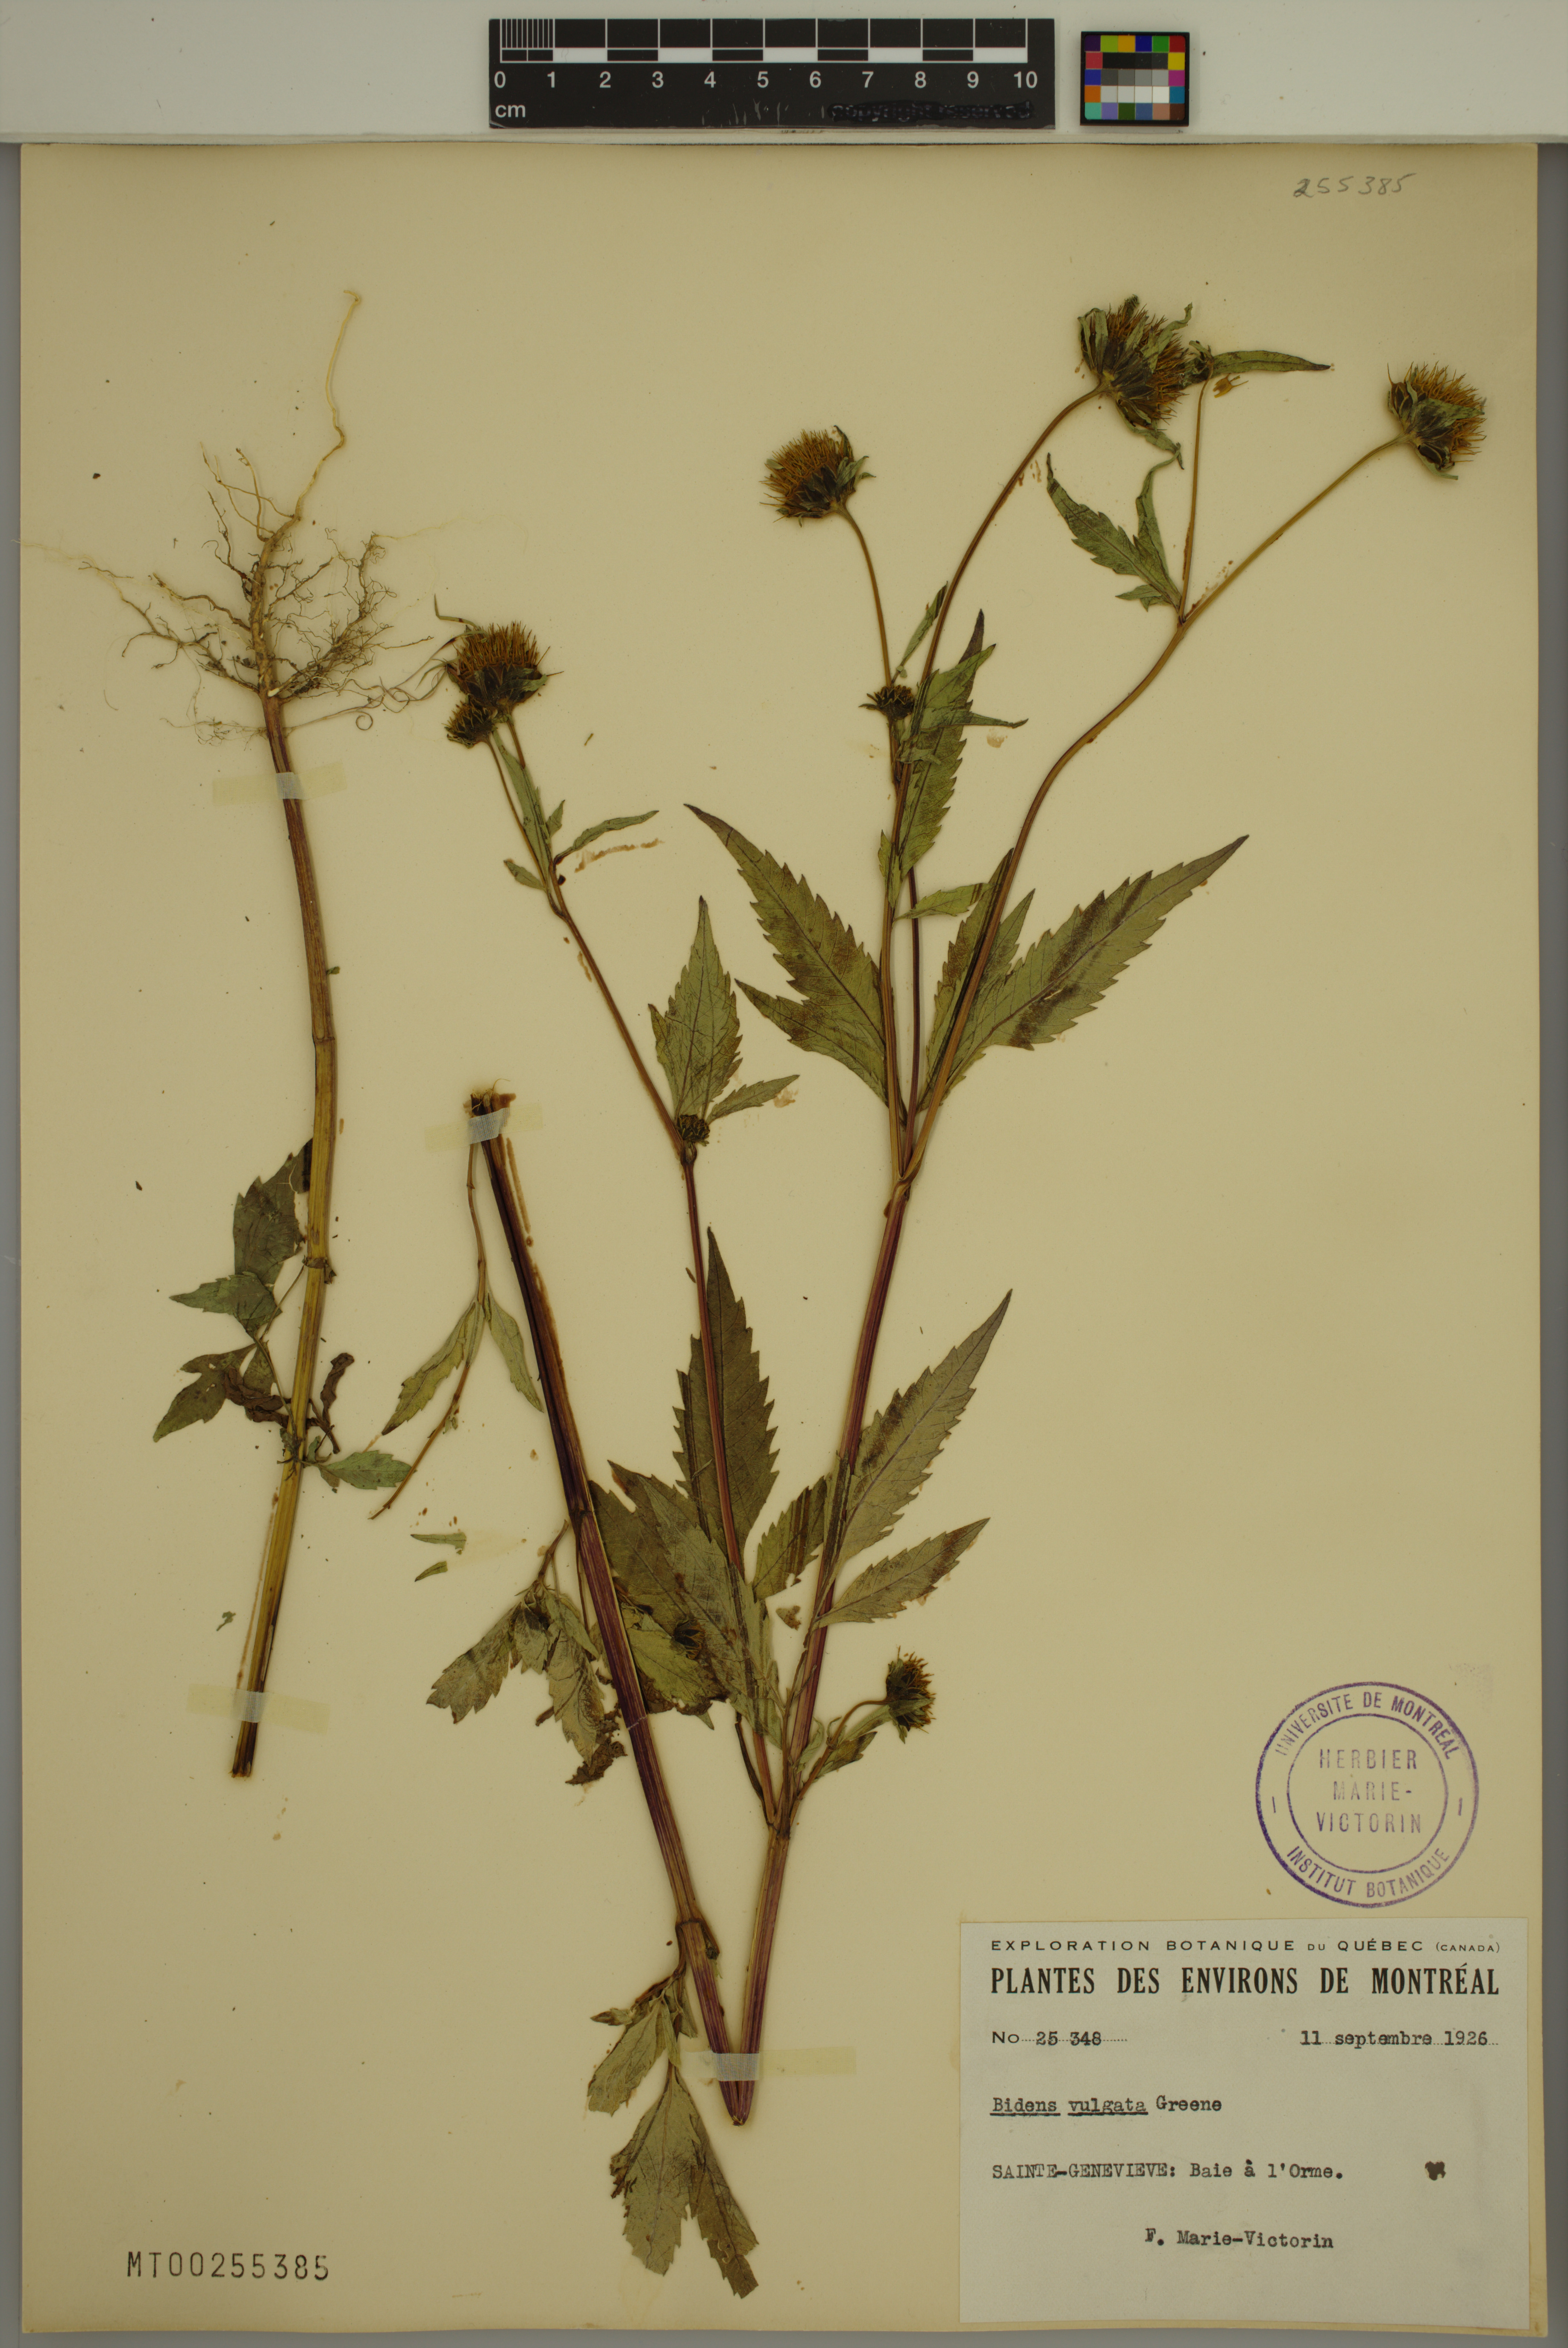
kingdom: Plantae
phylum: Tracheophyta
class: Magnoliopsida
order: Asterales
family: Asteraceae
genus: Bidens
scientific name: Bidens vulgata
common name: Tall beggarticks
